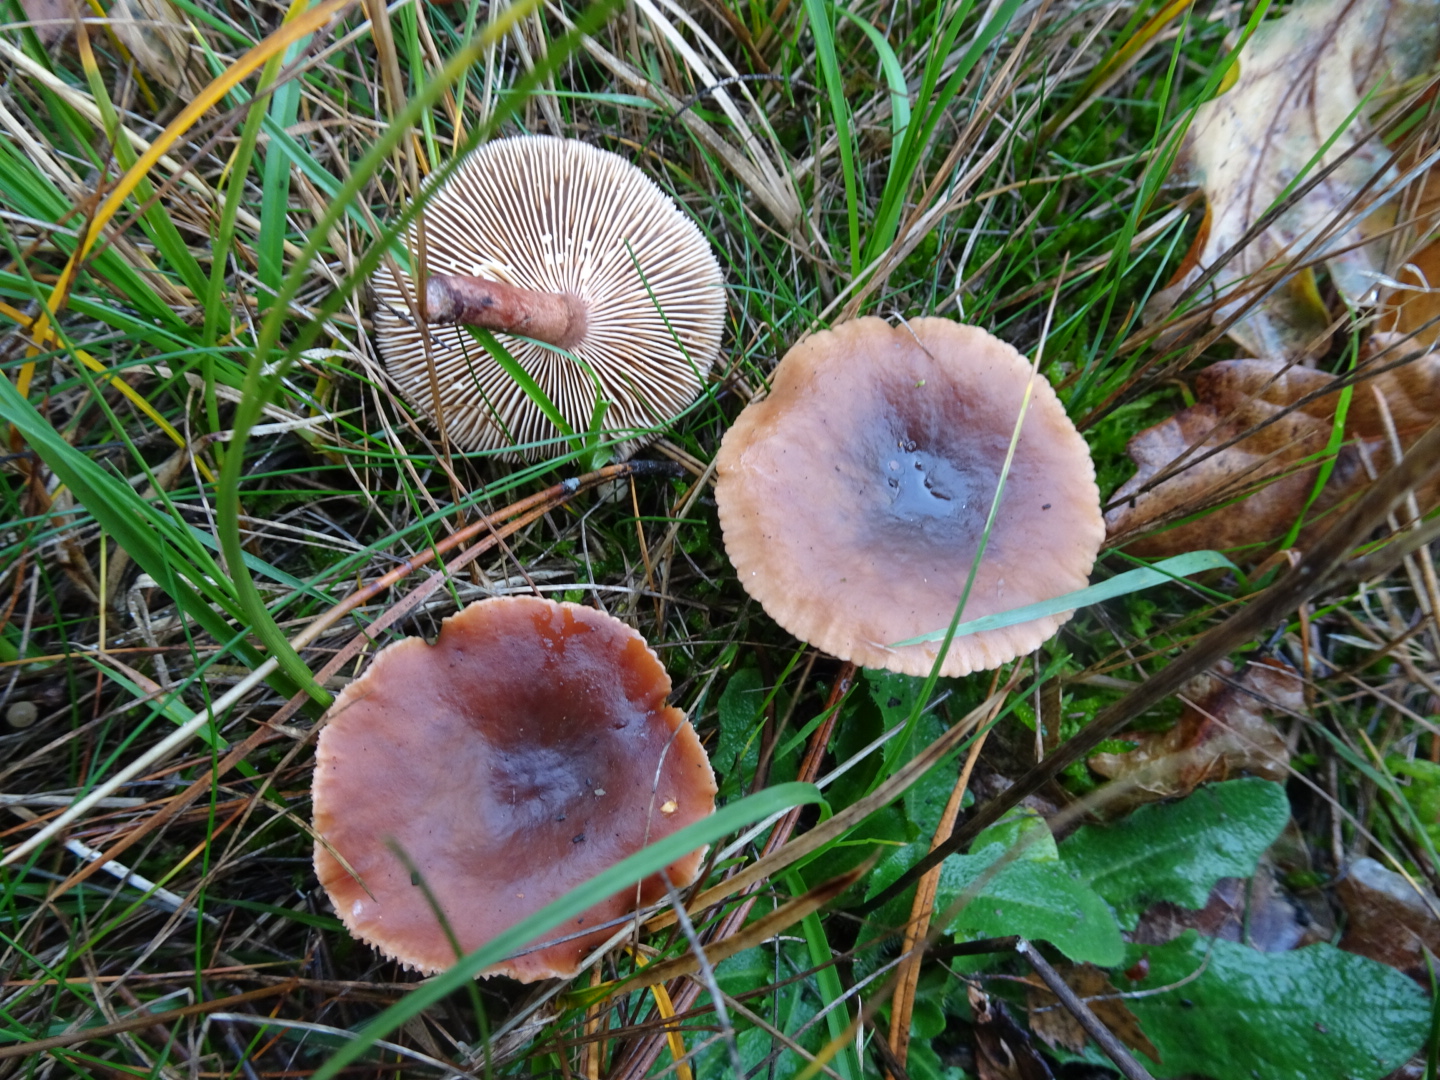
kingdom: Fungi
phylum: Basidiomycota
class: Agaricomycetes
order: Russulales
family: Russulaceae
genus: Lactarius
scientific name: Lactarius hepaticus
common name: leverbrun mælkehat
